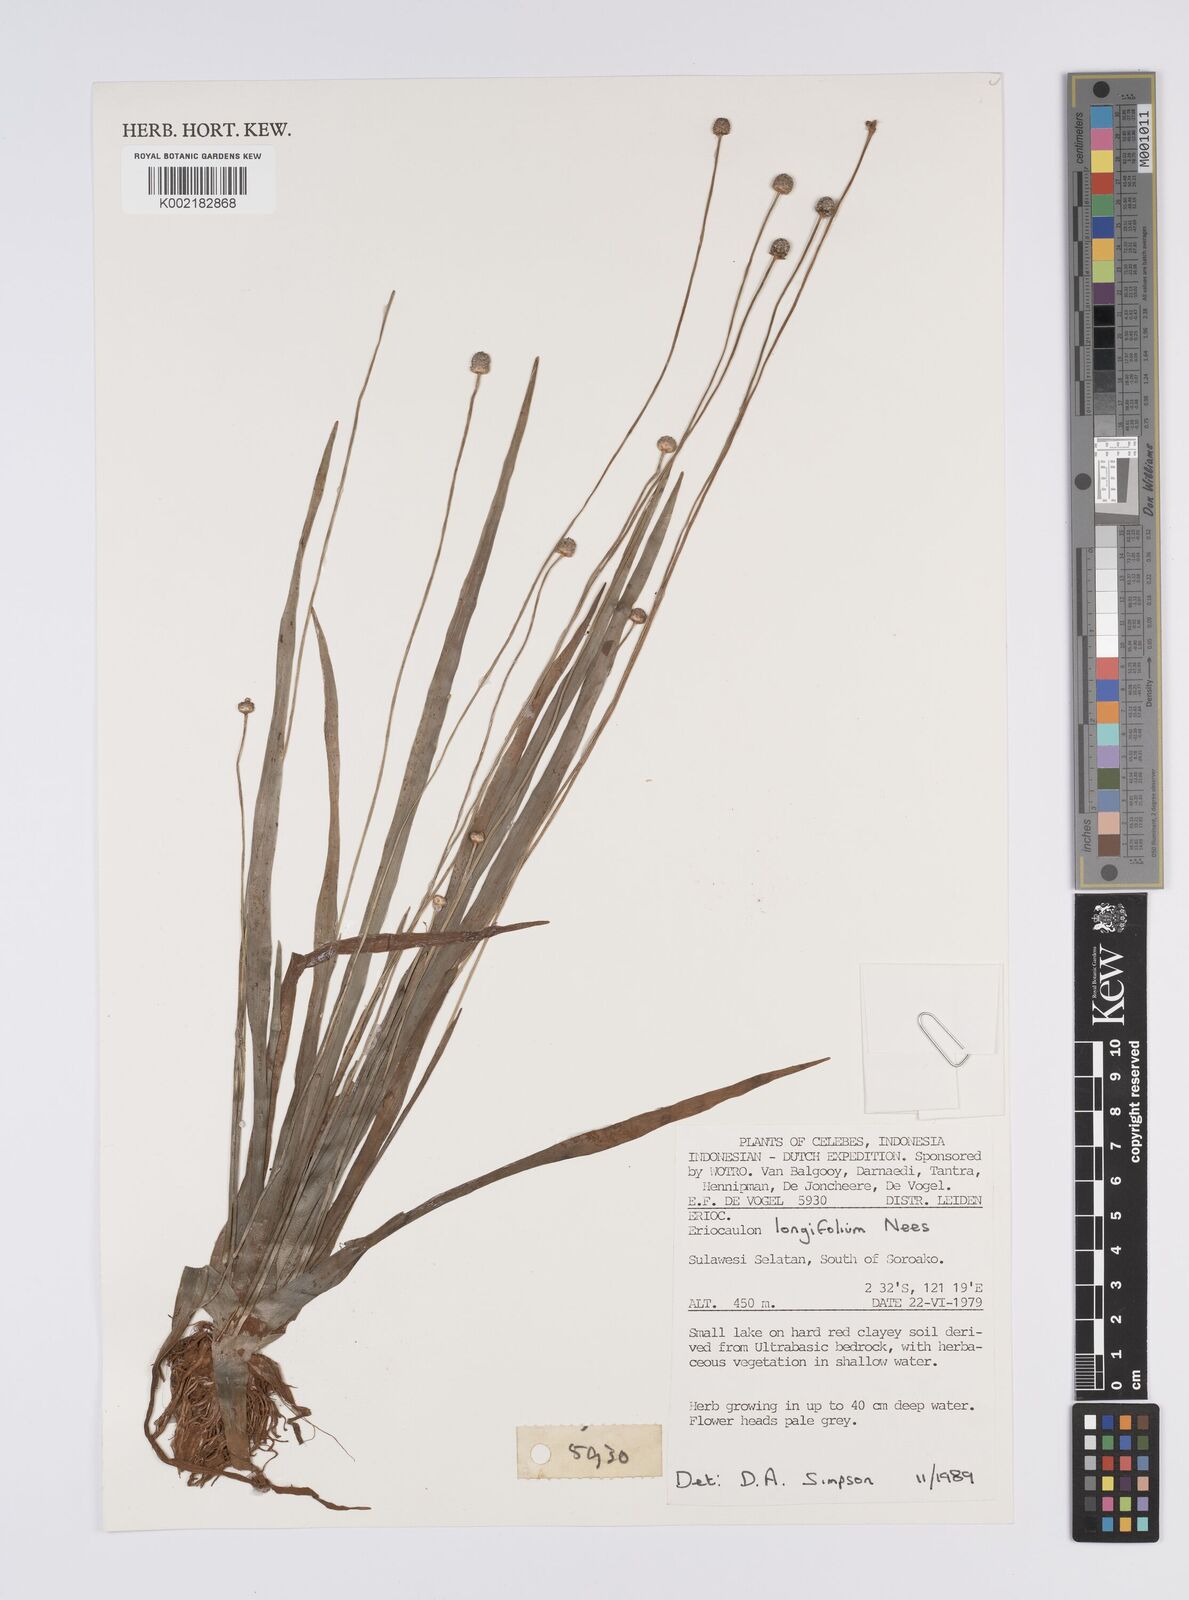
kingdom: Plantae
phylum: Tracheophyta
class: Liliopsida
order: Poales
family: Eriocaulaceae
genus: Eriocaulon
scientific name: Eriocaulon willdenovianum
